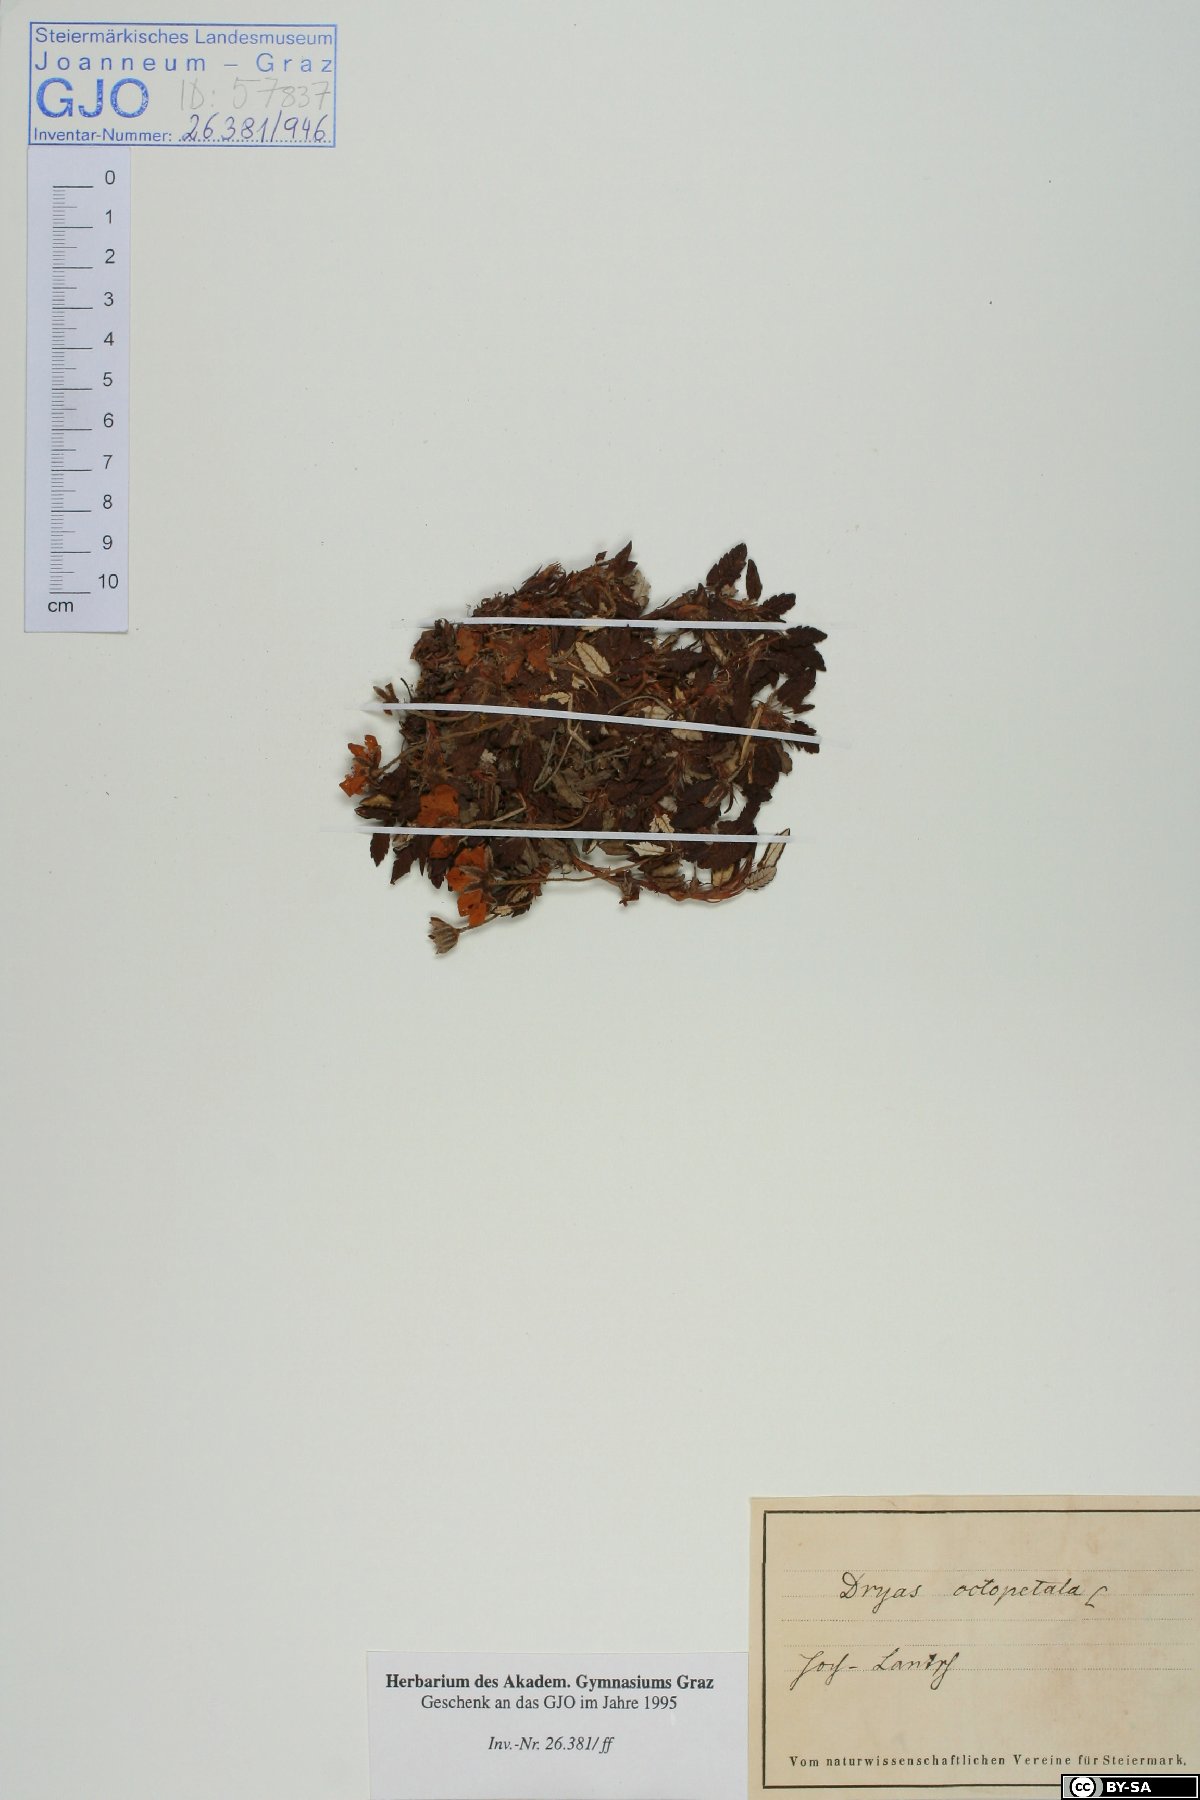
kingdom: Plantae
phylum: Tracheophyta
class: Magnoliopsida
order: Rosales
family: Rosaceae
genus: Dryas
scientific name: Dryas octopetala
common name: Eight-petal mountain-avens
